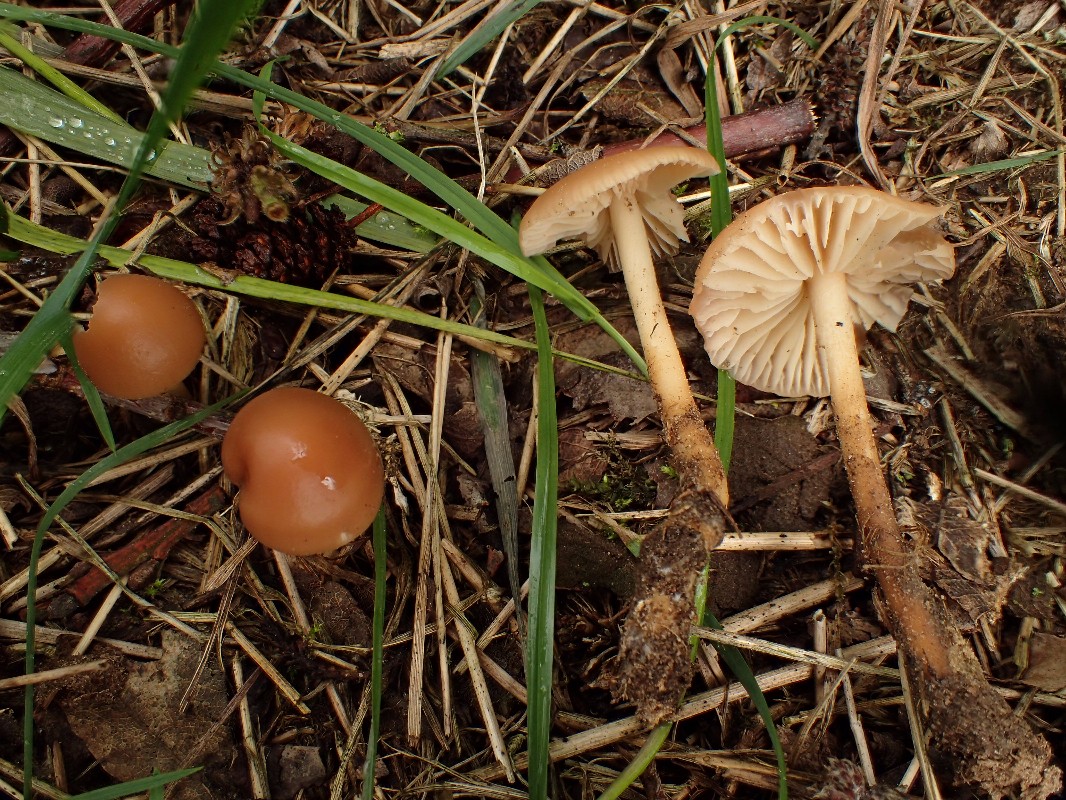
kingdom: Fungi
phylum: Basidiomycota
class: Agaricomycetes
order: Agaricales
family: Marasmiaceae
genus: Marasmius
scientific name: Marasmius oreades
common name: elledans-bruskhat
